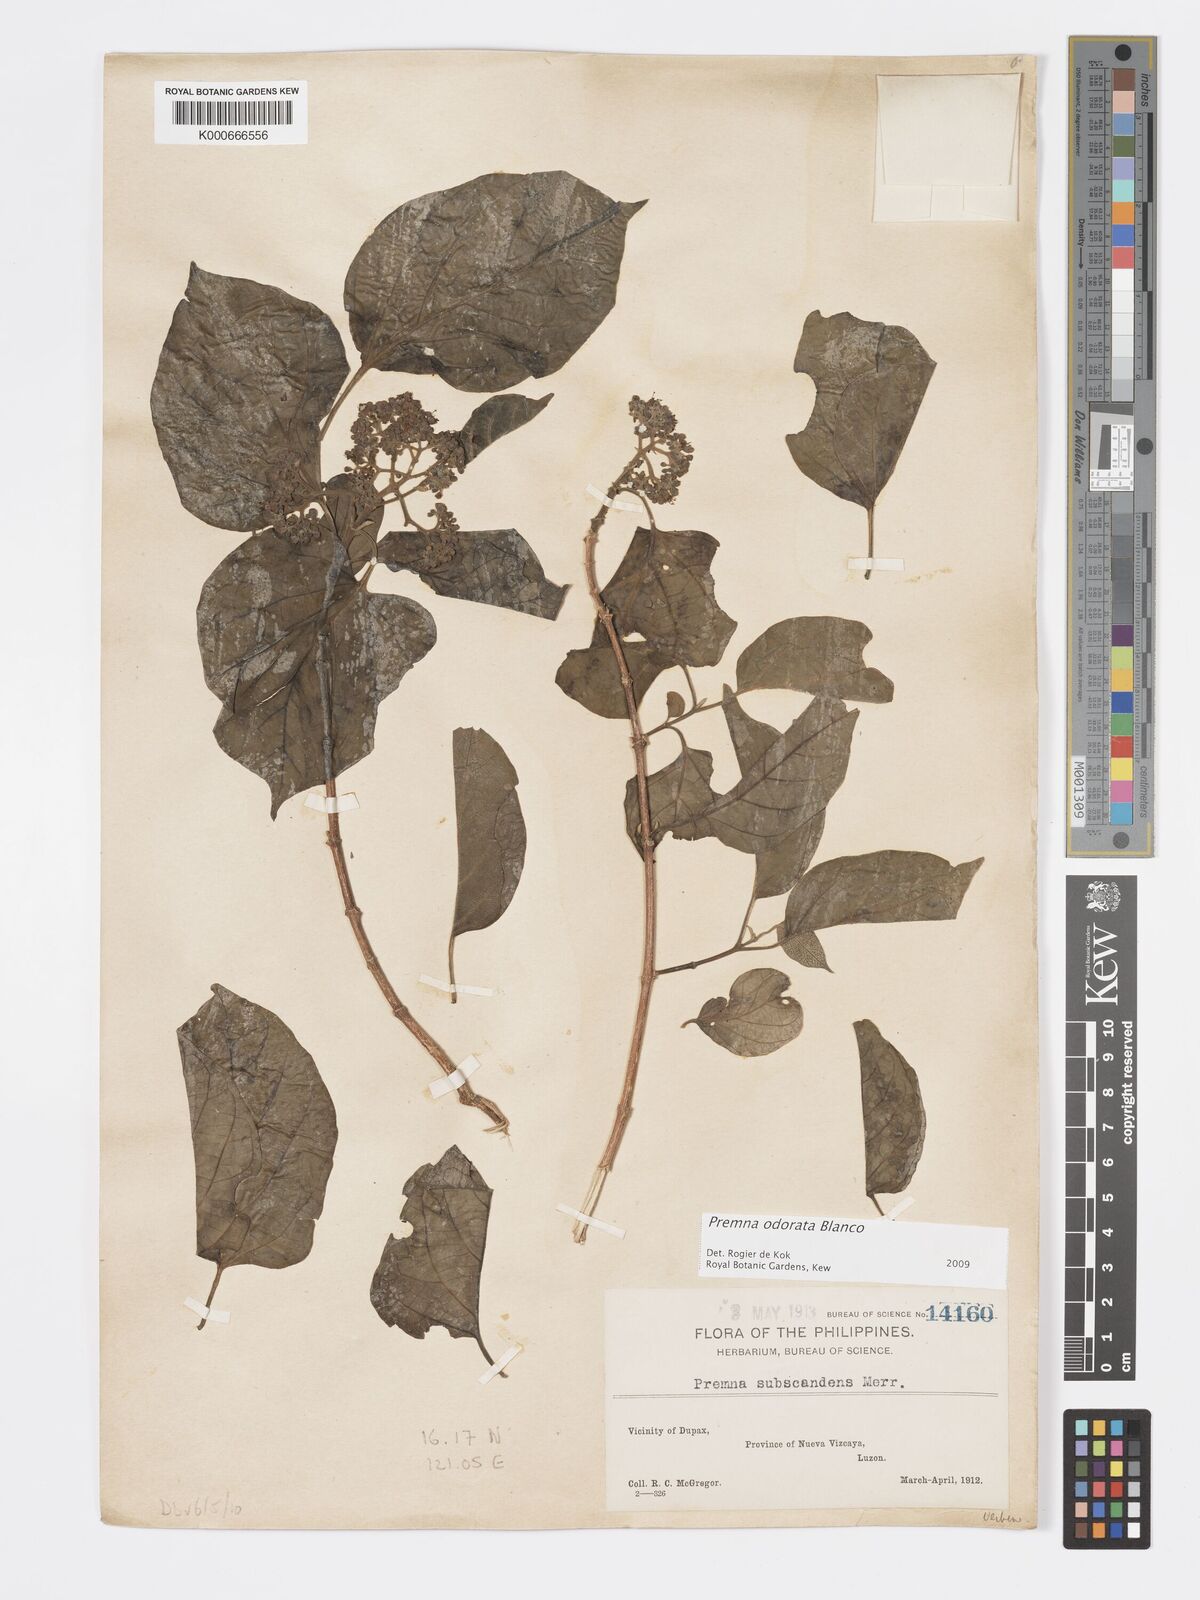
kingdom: Plantae
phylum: Tracheophyta
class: Magnoliopsida
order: Lamiales
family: Lamiaceae
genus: Premna
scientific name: Premna odorata
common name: Fragrant premna
